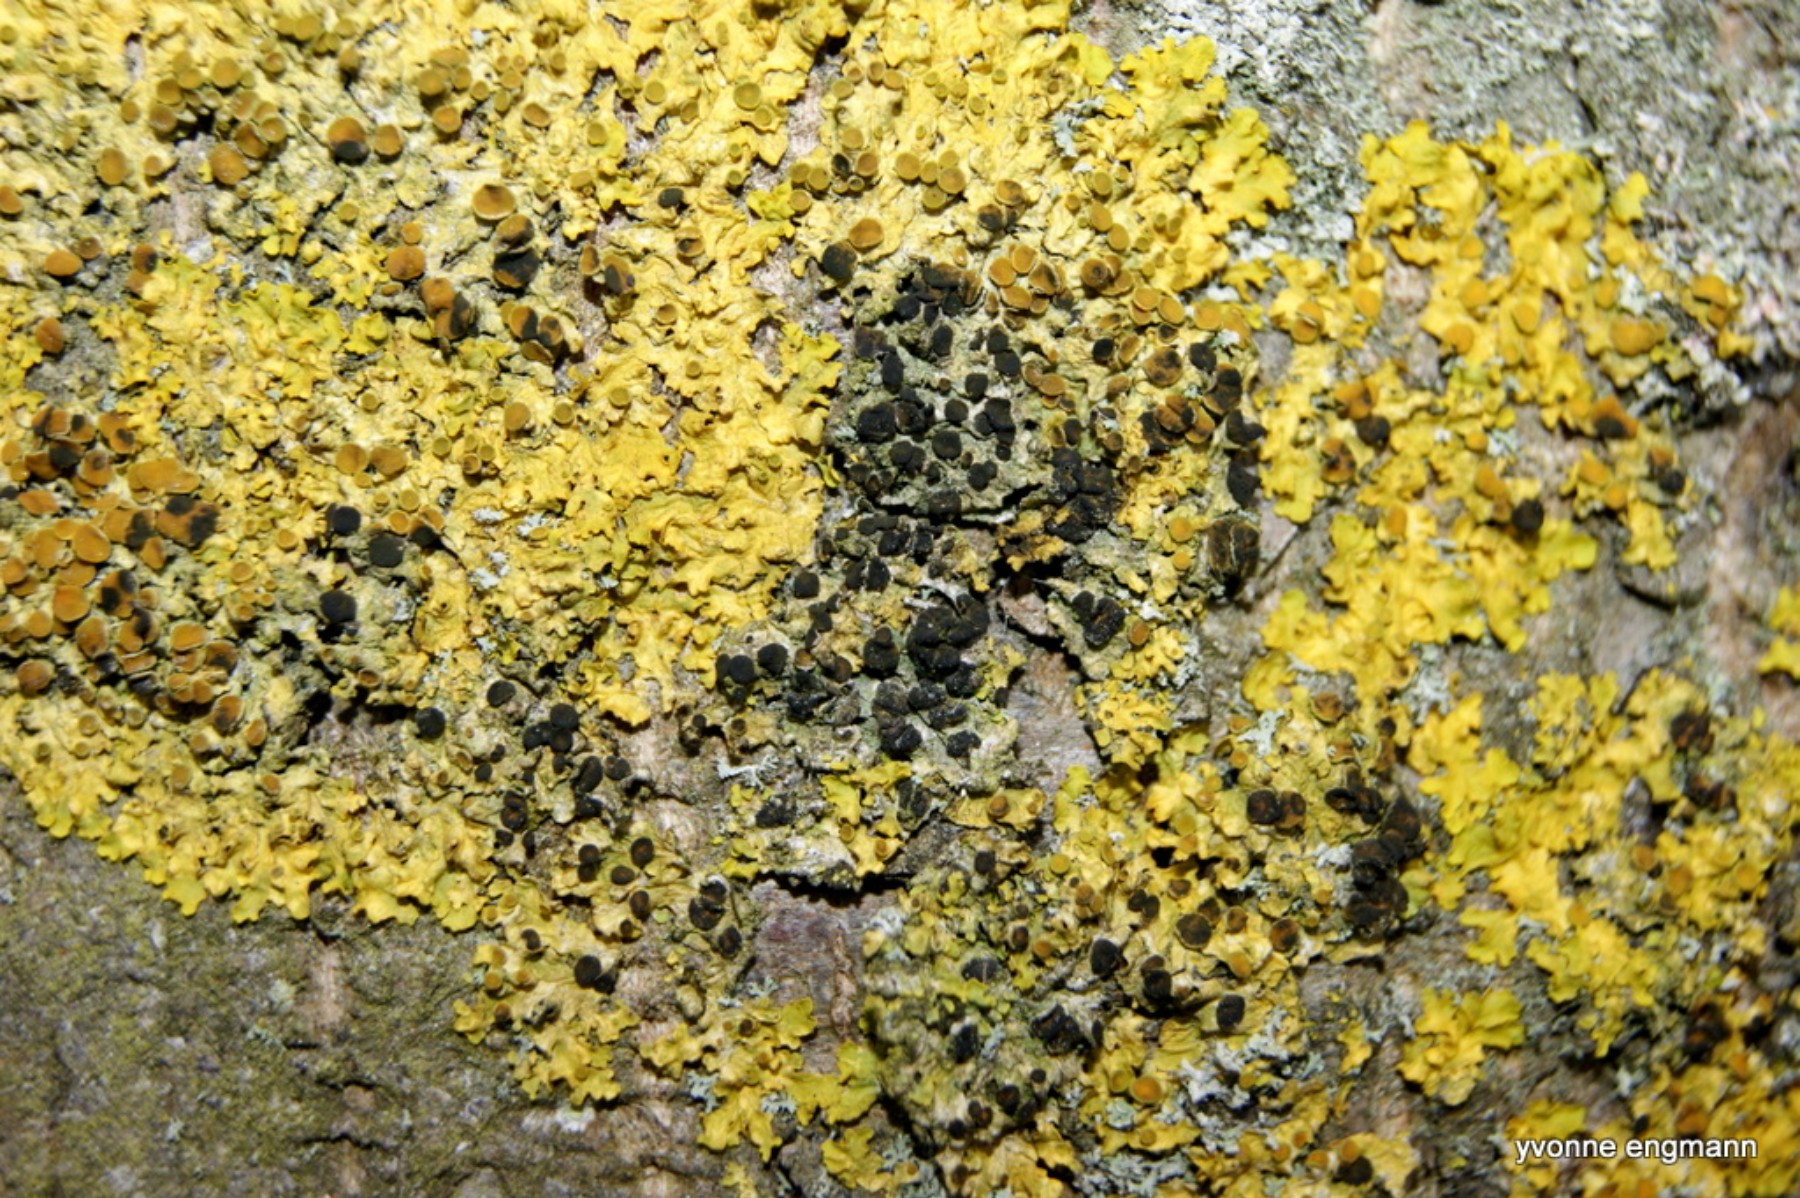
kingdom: Fungi
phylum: Ascomycota
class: Dothideomycetes
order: Mycosphaerellales
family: Teratosphaeriaceae
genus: Xanthoriicola
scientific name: Xanthoriicola physciae
